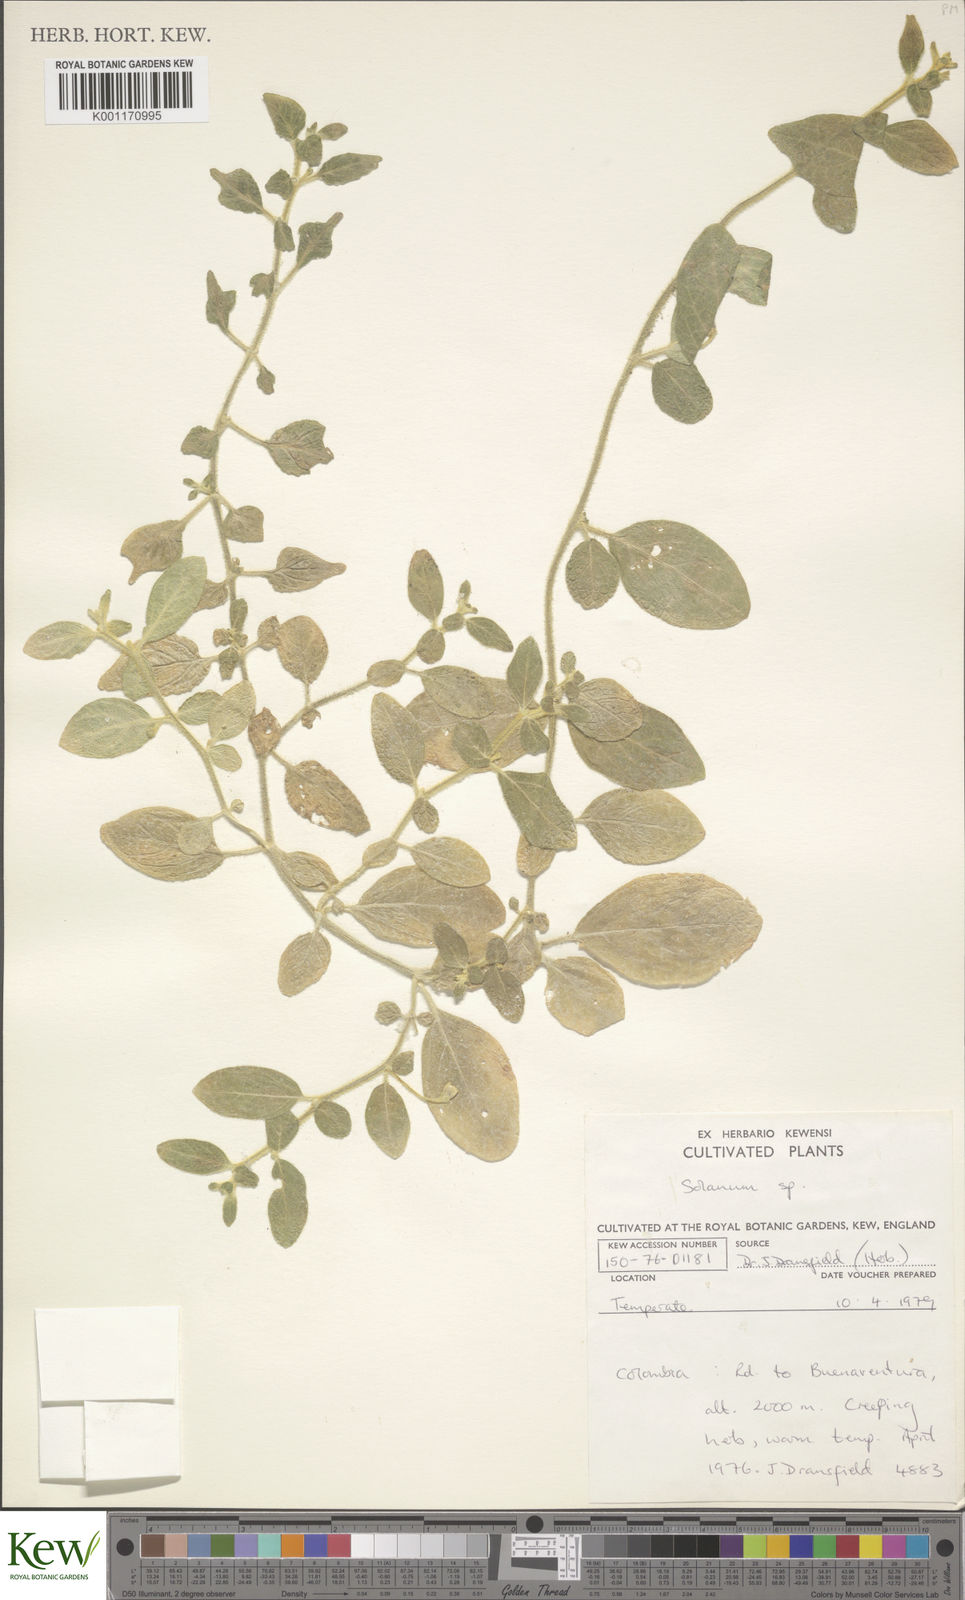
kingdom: Plantae
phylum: Tracheophyta
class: Magnoliopsida
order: Solanales
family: Solanaceae
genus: Solanum
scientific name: Solanum
